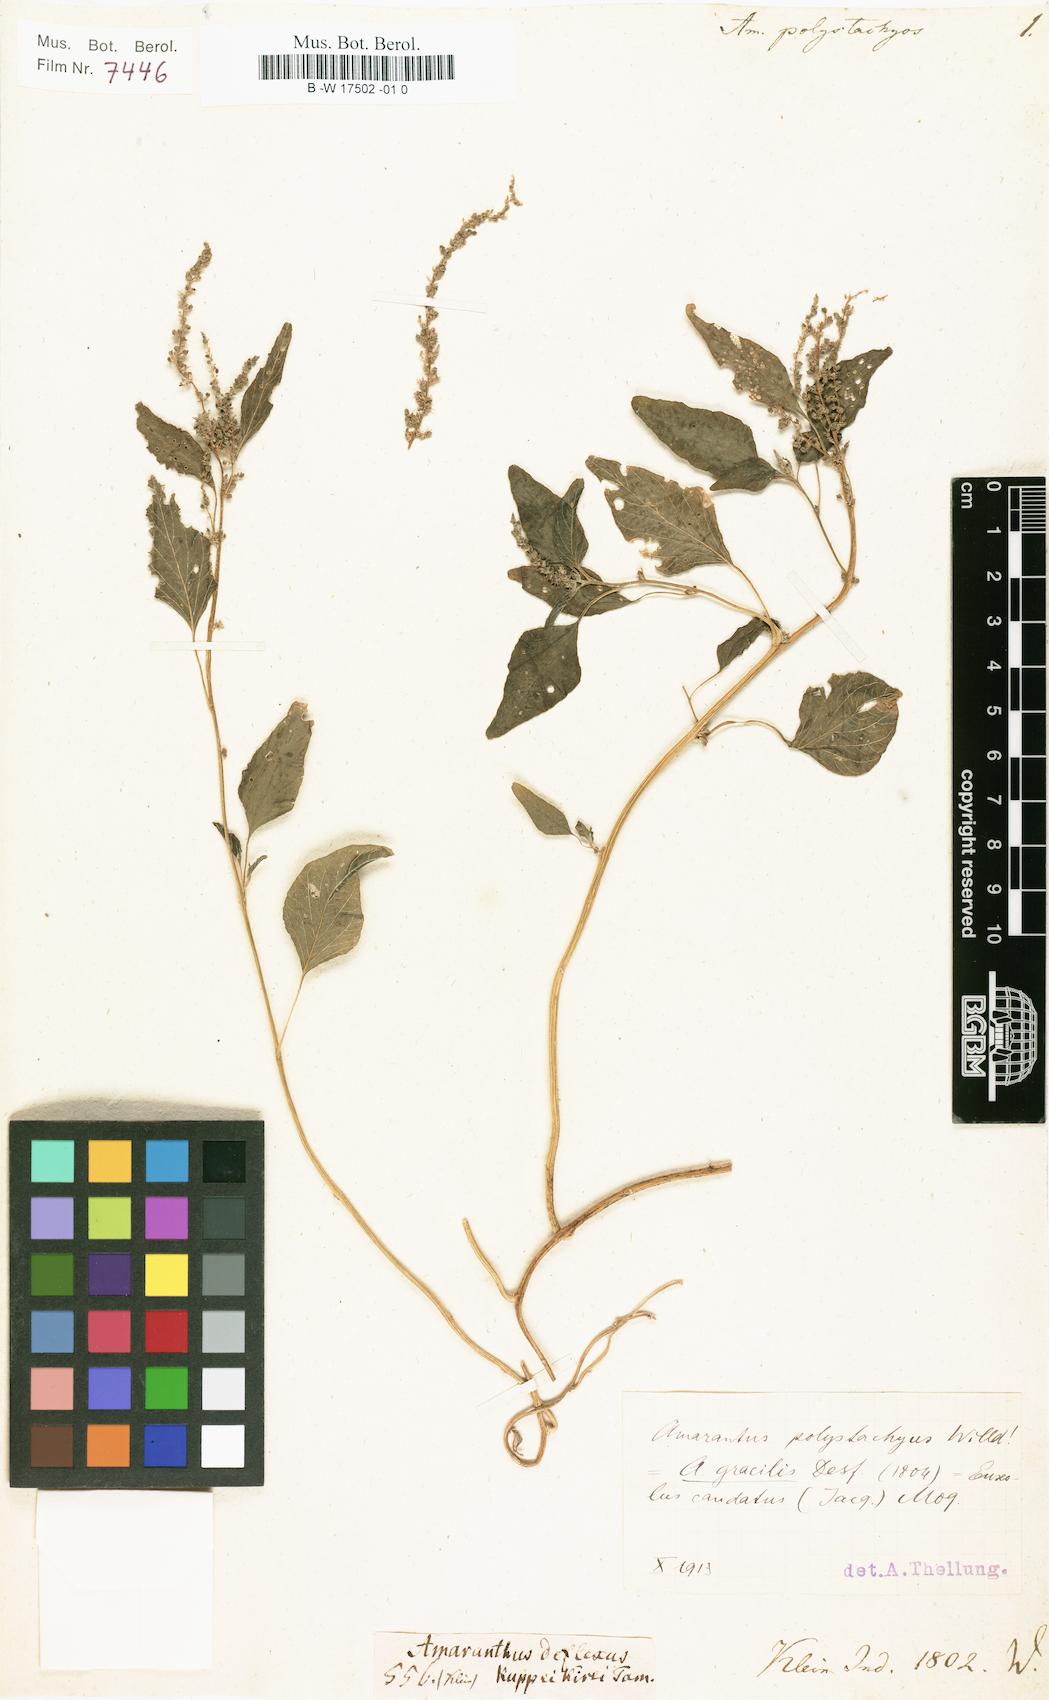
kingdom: Plantae
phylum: Tracheophyta
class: Magnoliopsida
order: Caryophyllales
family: Amaranthaceae
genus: Amaranthus
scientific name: Amaranthus viridis
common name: Slender amaranth
